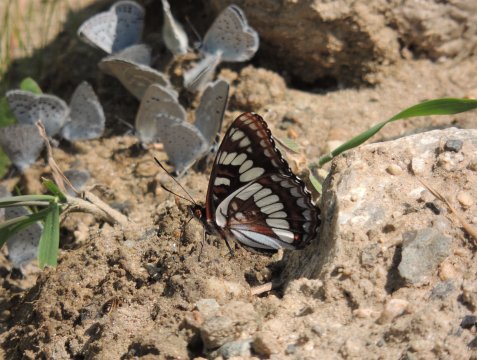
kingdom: Animalia
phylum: Arthropoda
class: Insecta
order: Lepidoptera
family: Nymphalidae
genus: Limenitis
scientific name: Limenitis lorquini
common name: Lorquin's Admiral
